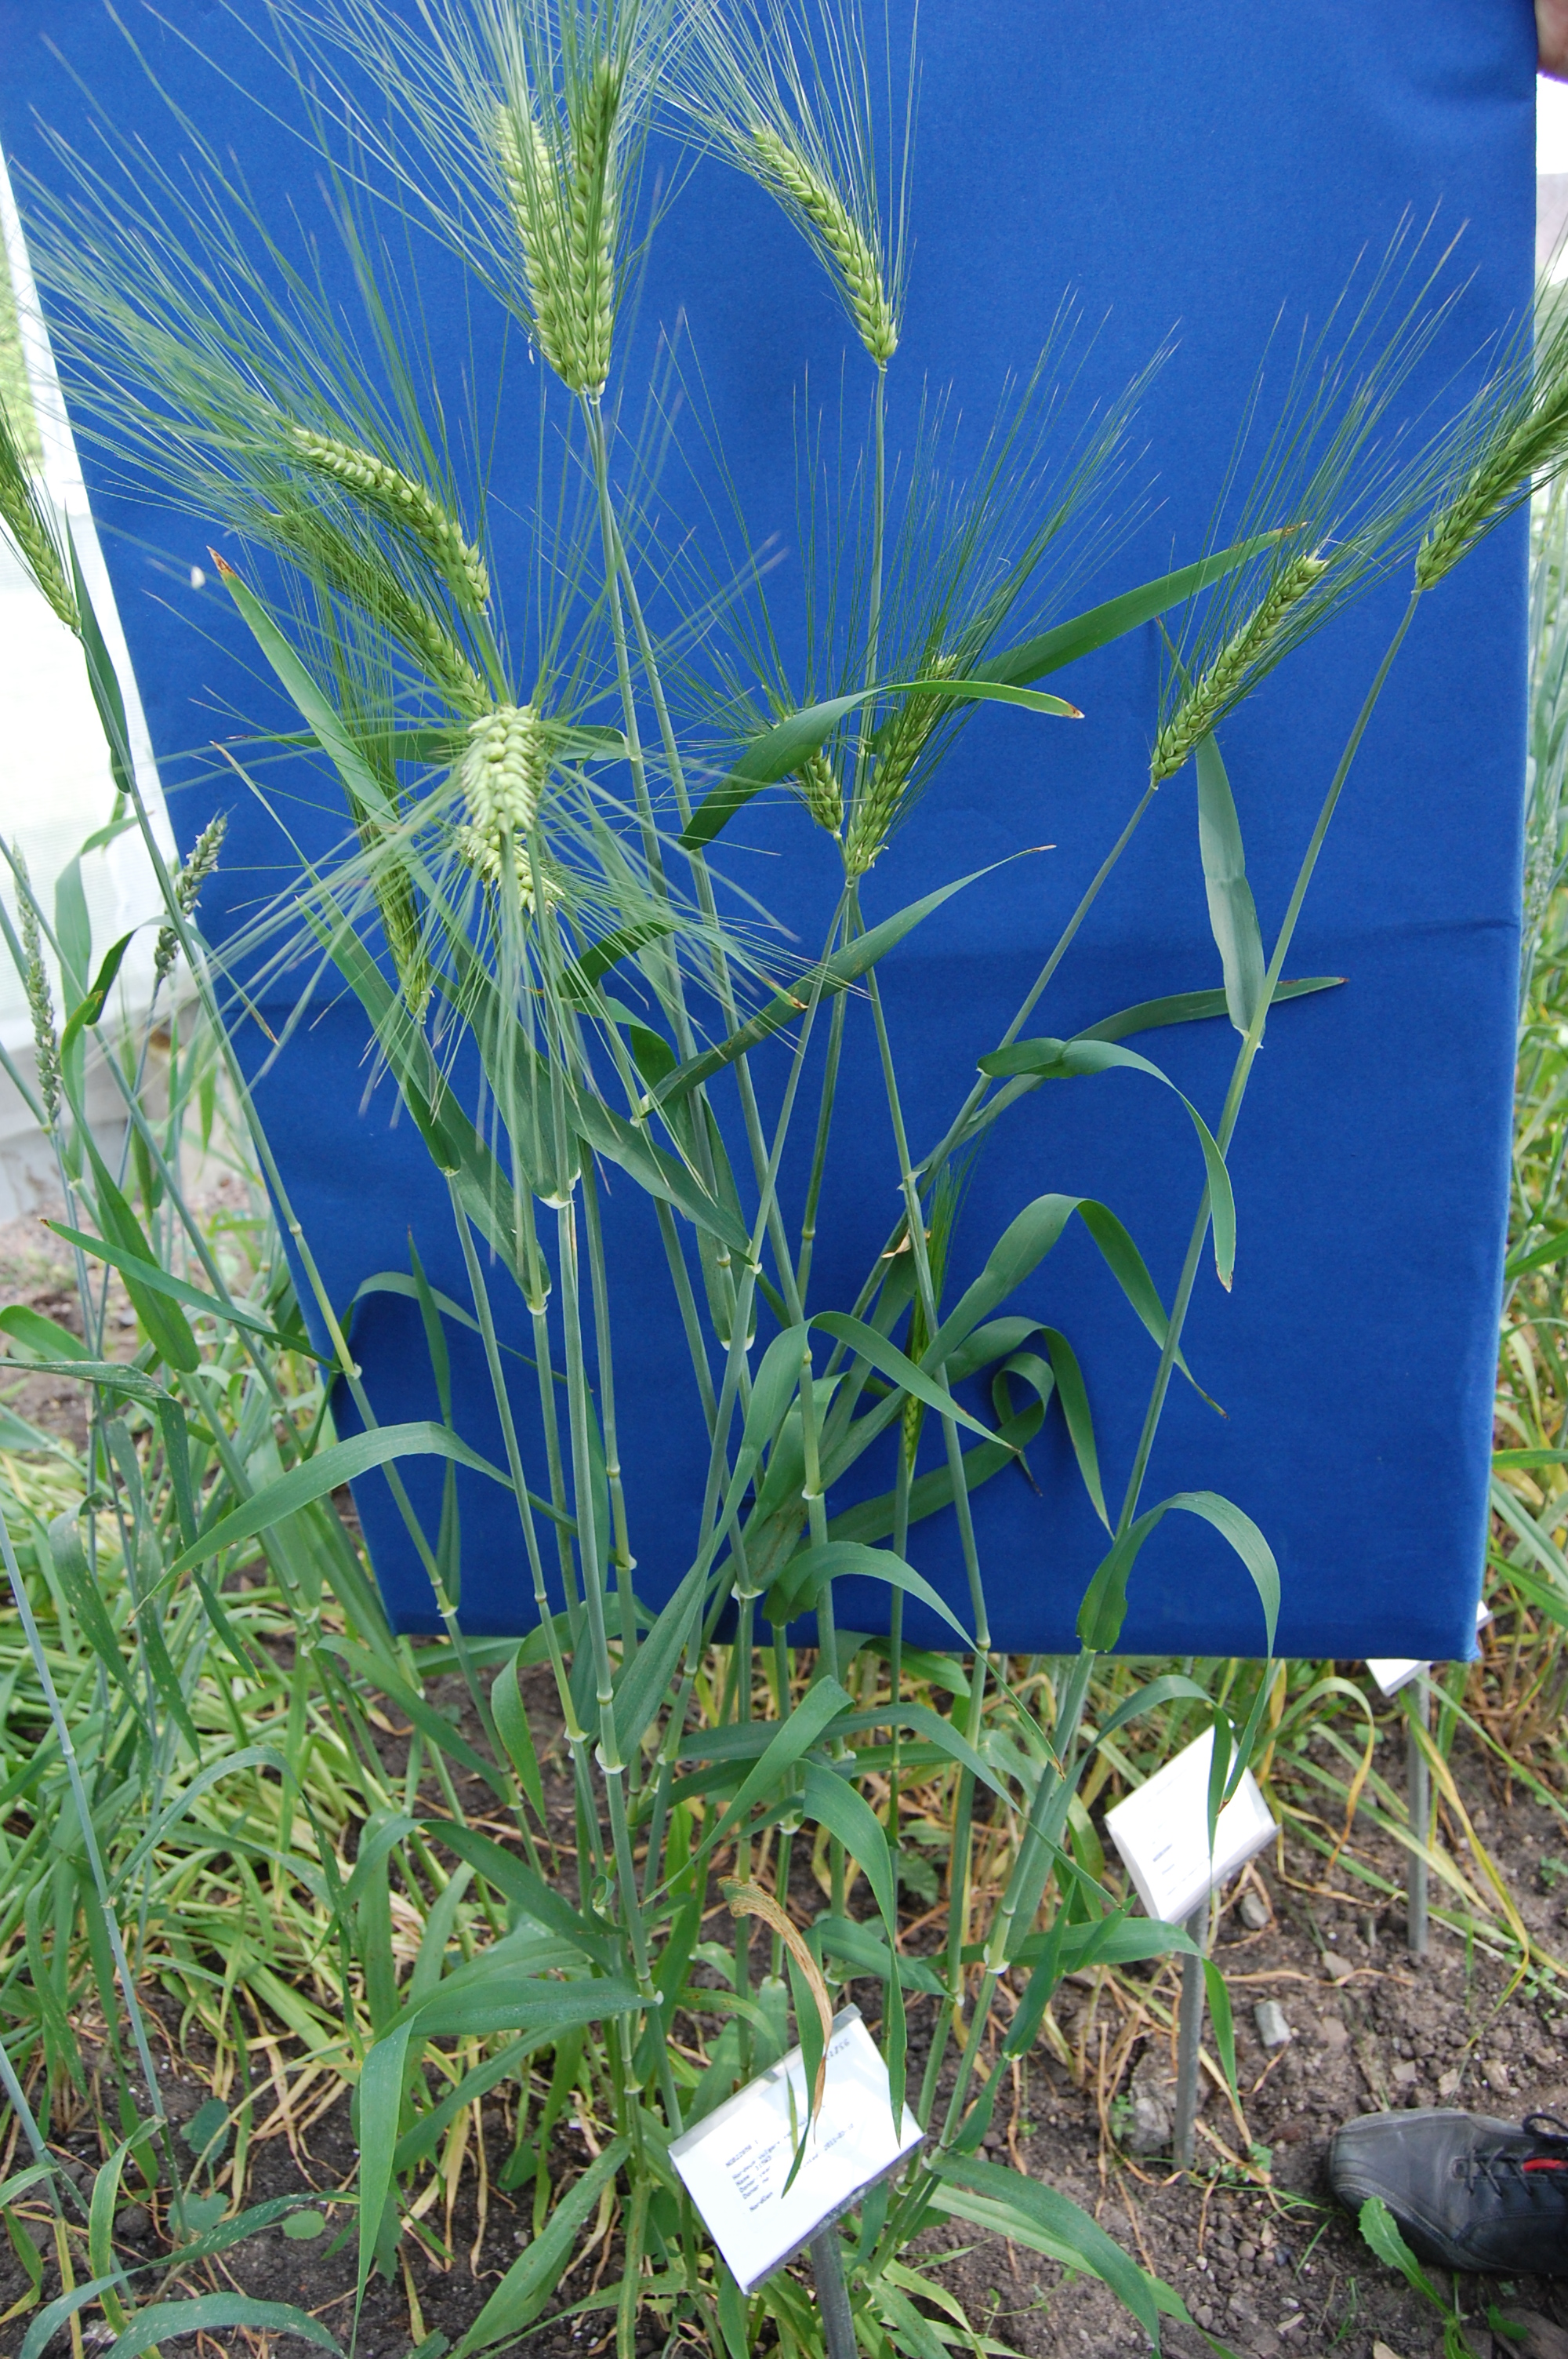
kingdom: Plantae
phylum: Tracheophyta
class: Liliopsida
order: Poales
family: Poaceae
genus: Hordeum
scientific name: Hordeum vulgare
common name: Common barley
